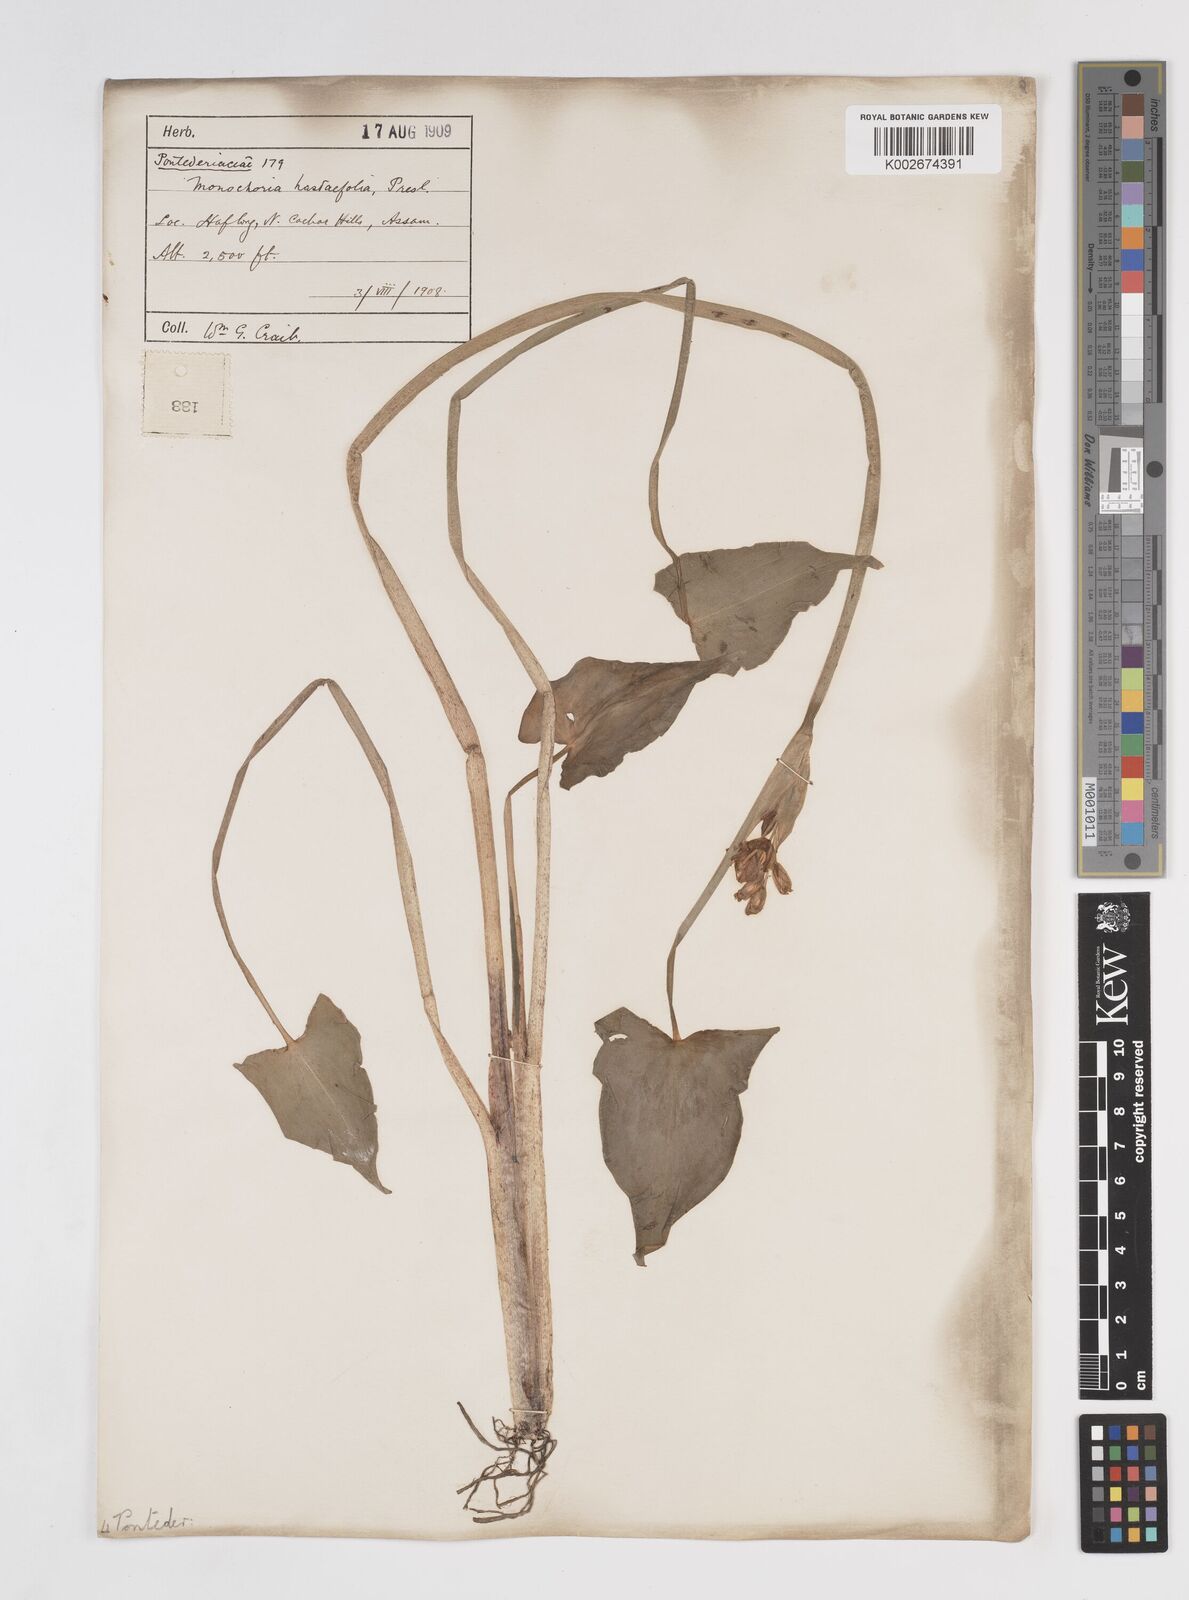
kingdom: Plantae
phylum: Tracheophyta
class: Liliopsida
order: Commelinales
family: Pontederiaceae
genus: Pontederia
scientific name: Pontederia hastata
